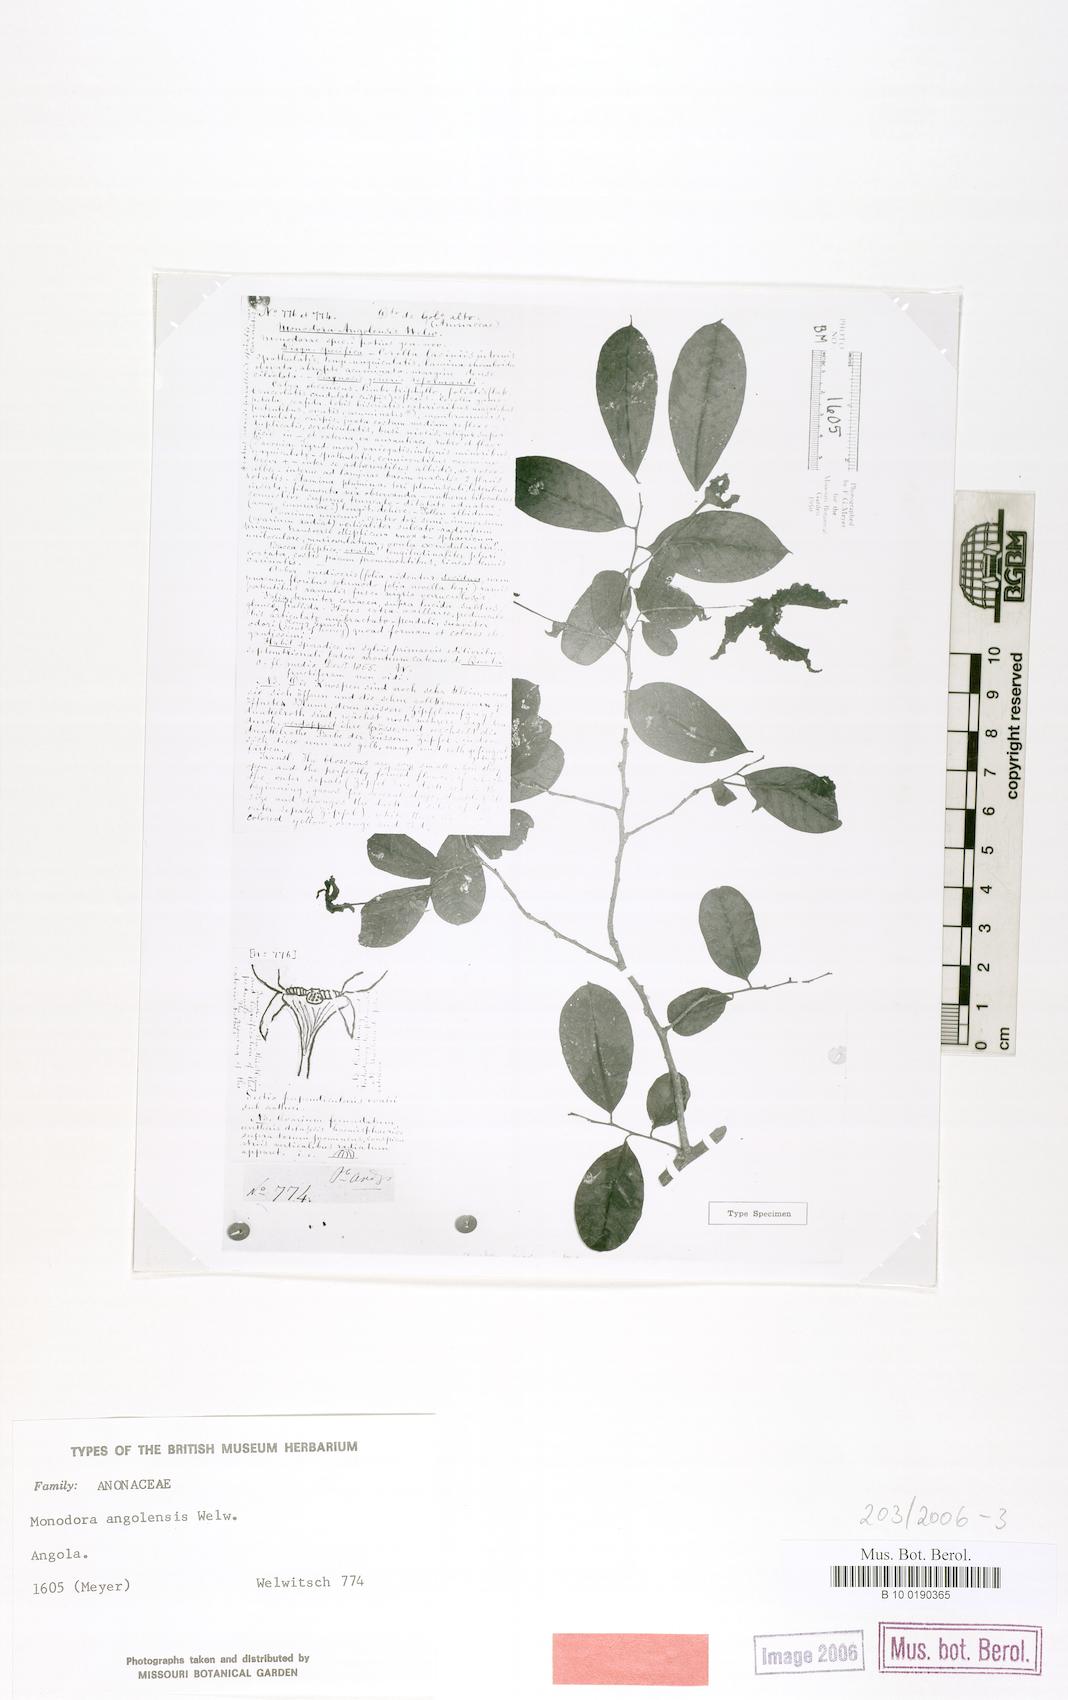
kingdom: Plantae
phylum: Tracheophyta
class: Magnoliopsida
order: Magnoliales
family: Annonaceae
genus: Monodora
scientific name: Monodora angolensis
